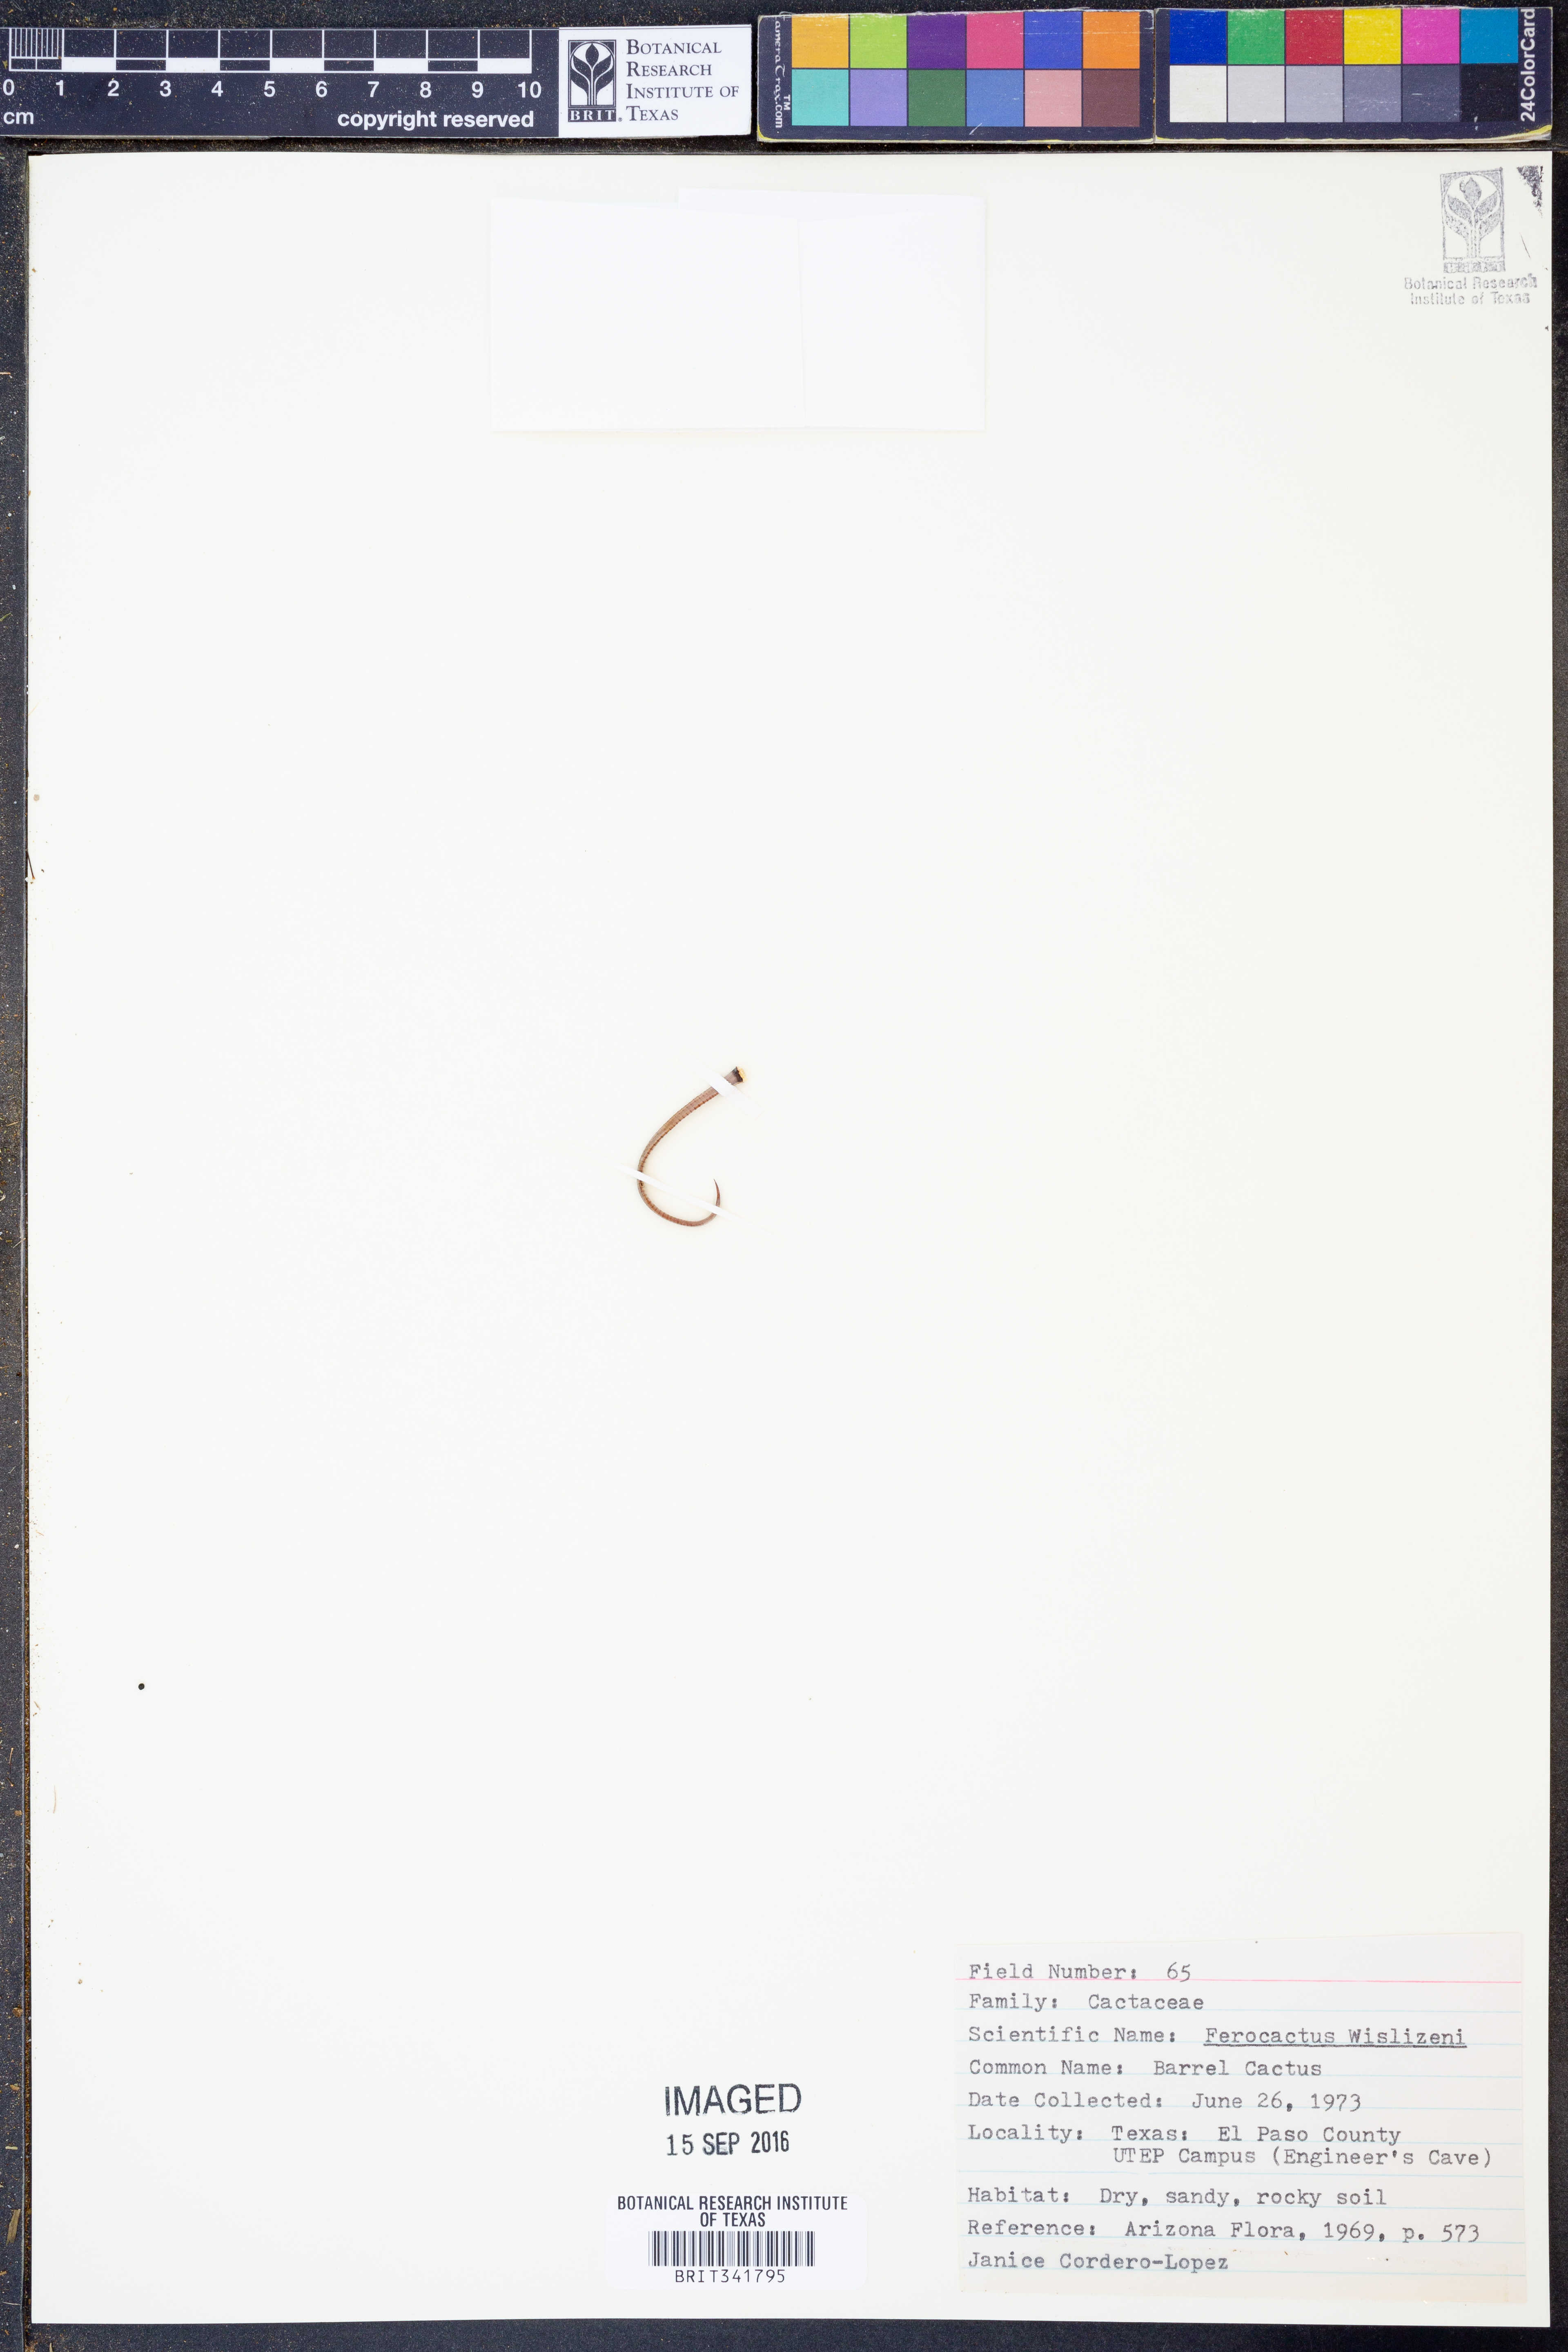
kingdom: Plantae
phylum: Tracheophyta
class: Magnoliopsida
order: Caryophyllales
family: Cactaceae
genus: Ferocactus
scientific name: Ferocactus wislizeni
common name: Candy barrel cactus
